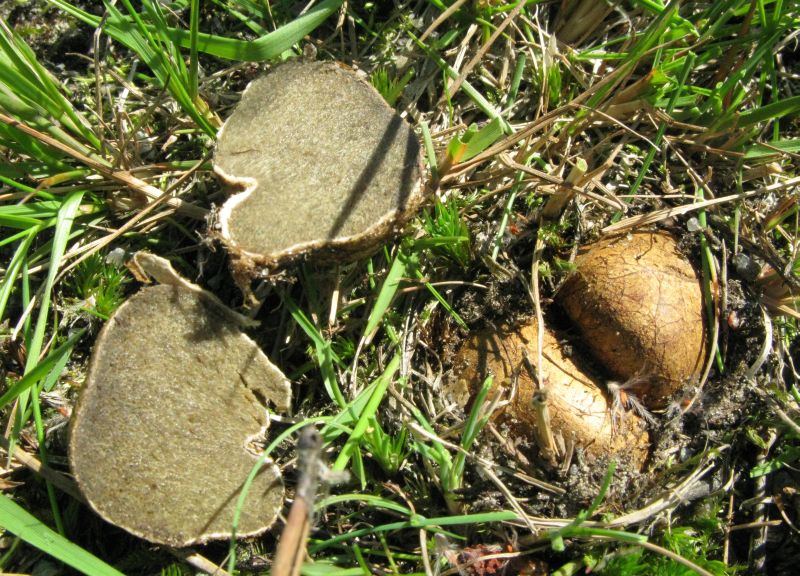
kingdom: Fungi
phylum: Basidiomycota
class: Agaricomycetes
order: Boletales
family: Rhizopogonaceae
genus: Rhizopogon
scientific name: Rhizopogon obtextus
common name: gul skægtrøffel
